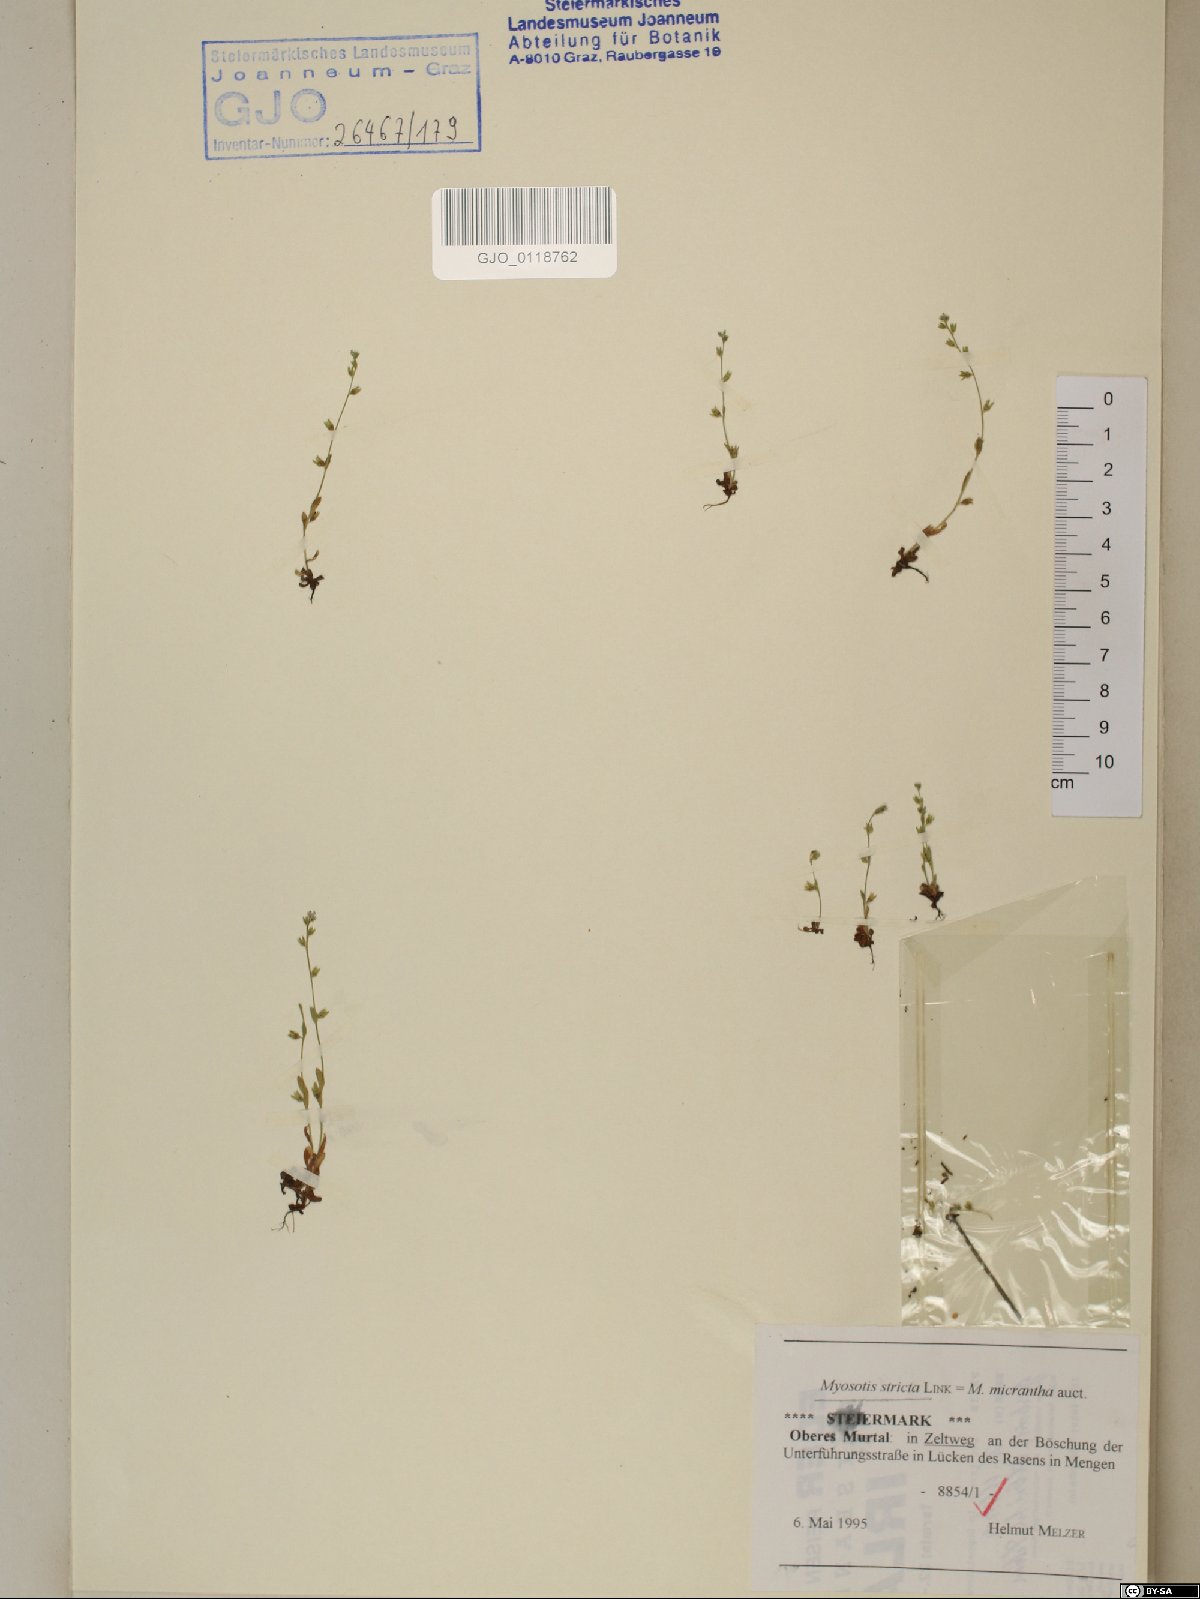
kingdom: Plantae
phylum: Tracheophyta
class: Magnoliopsida
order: Boraginales
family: Boraginaceae
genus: Myosotis
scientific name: Myosotis stricta
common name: Strict forget-me-not
